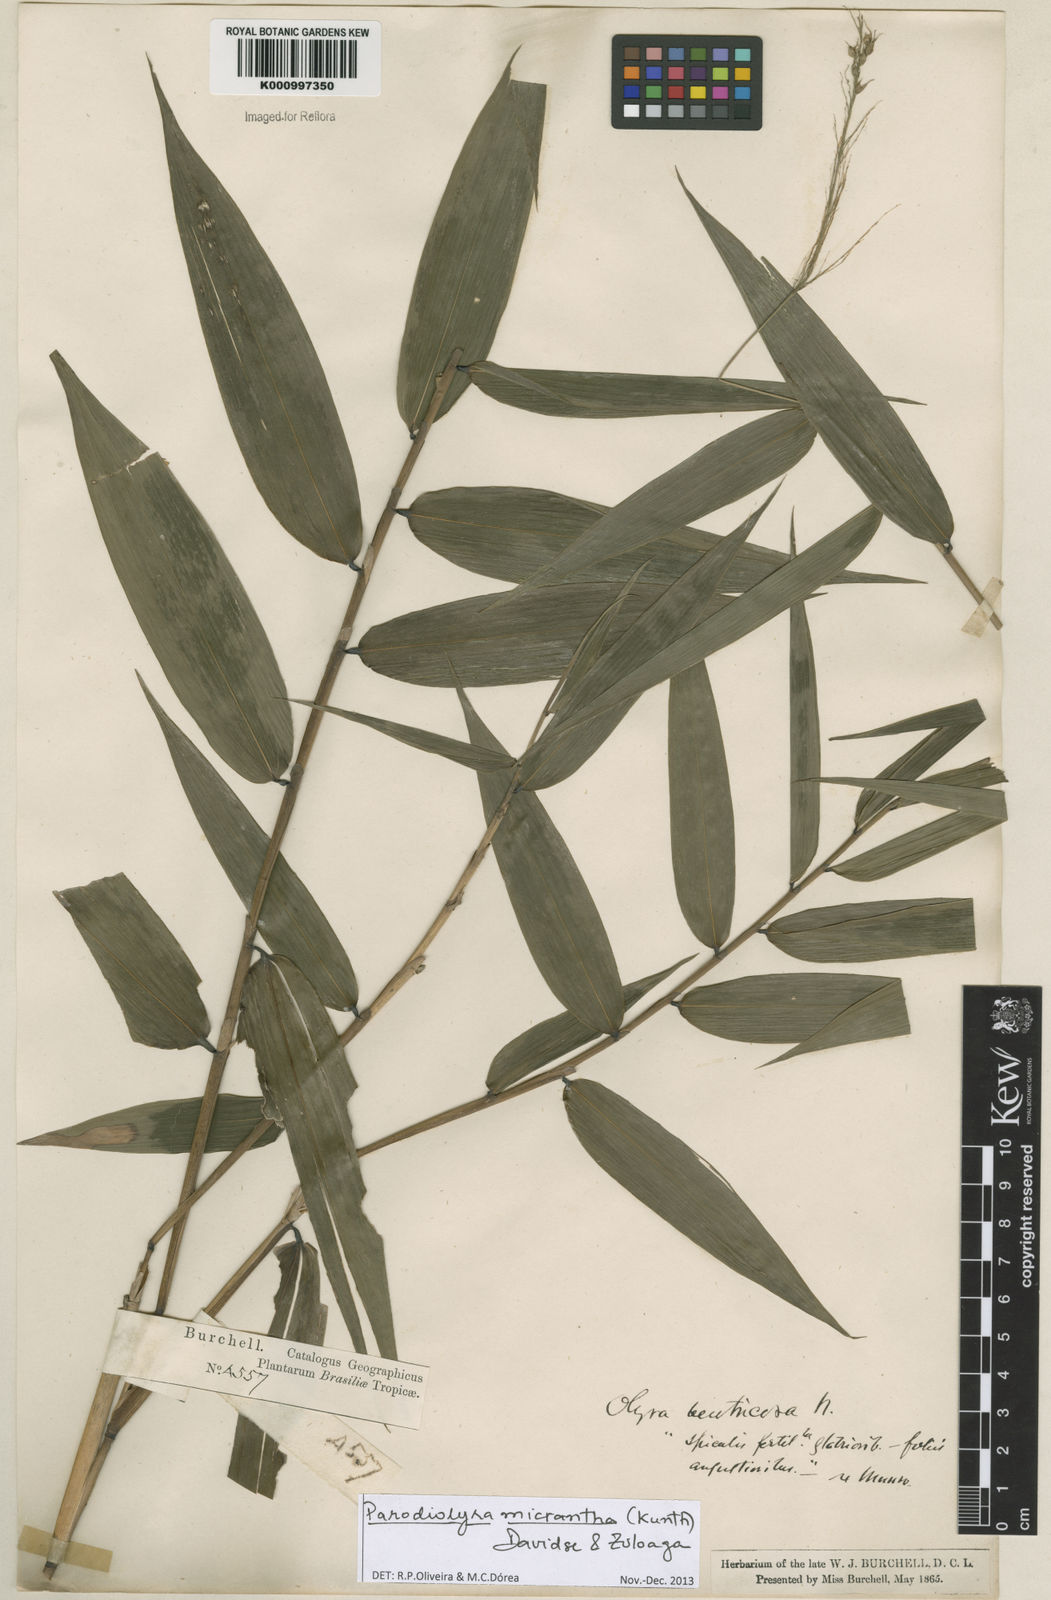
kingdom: Plantae
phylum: Tracheophyta
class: Liliopsida
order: Poales
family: Poaceae
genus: Taquara
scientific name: Taquara micrantha
